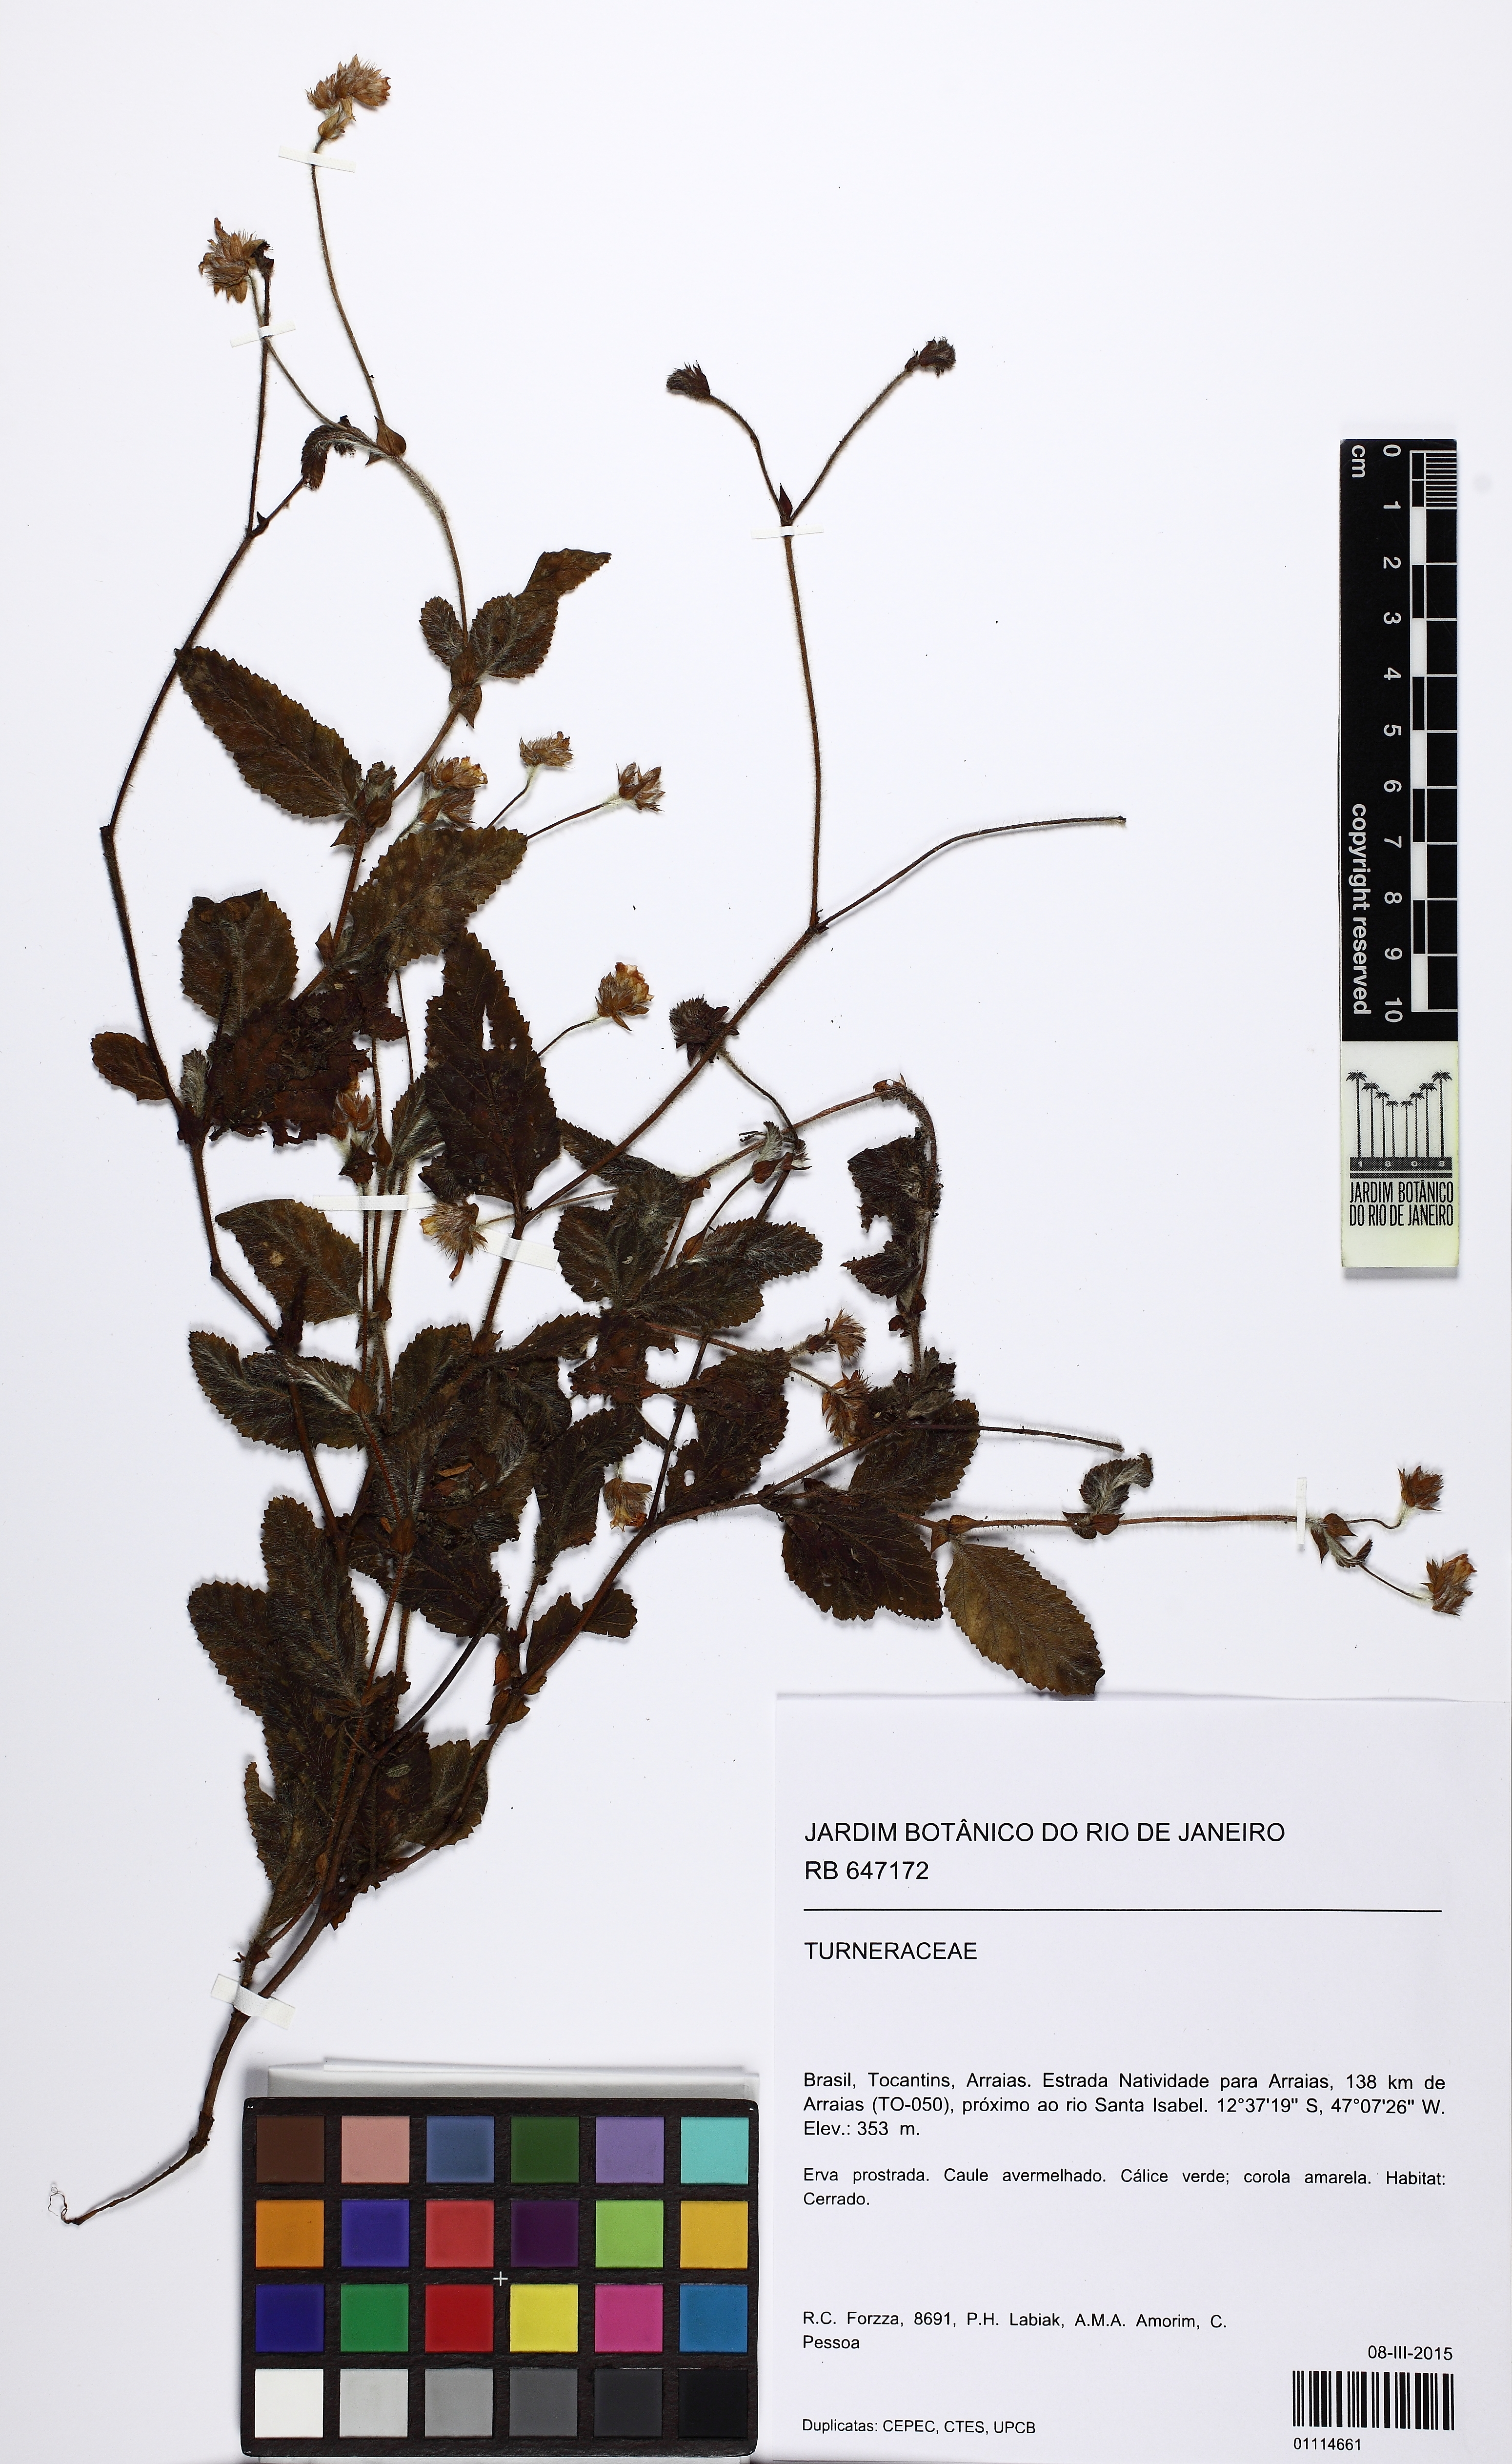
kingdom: Plantae
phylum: Tracheophyta
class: Magnoliopsida
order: Malvales
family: Malvaceae
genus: Waltheria
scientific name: Waltheria bracteosa
